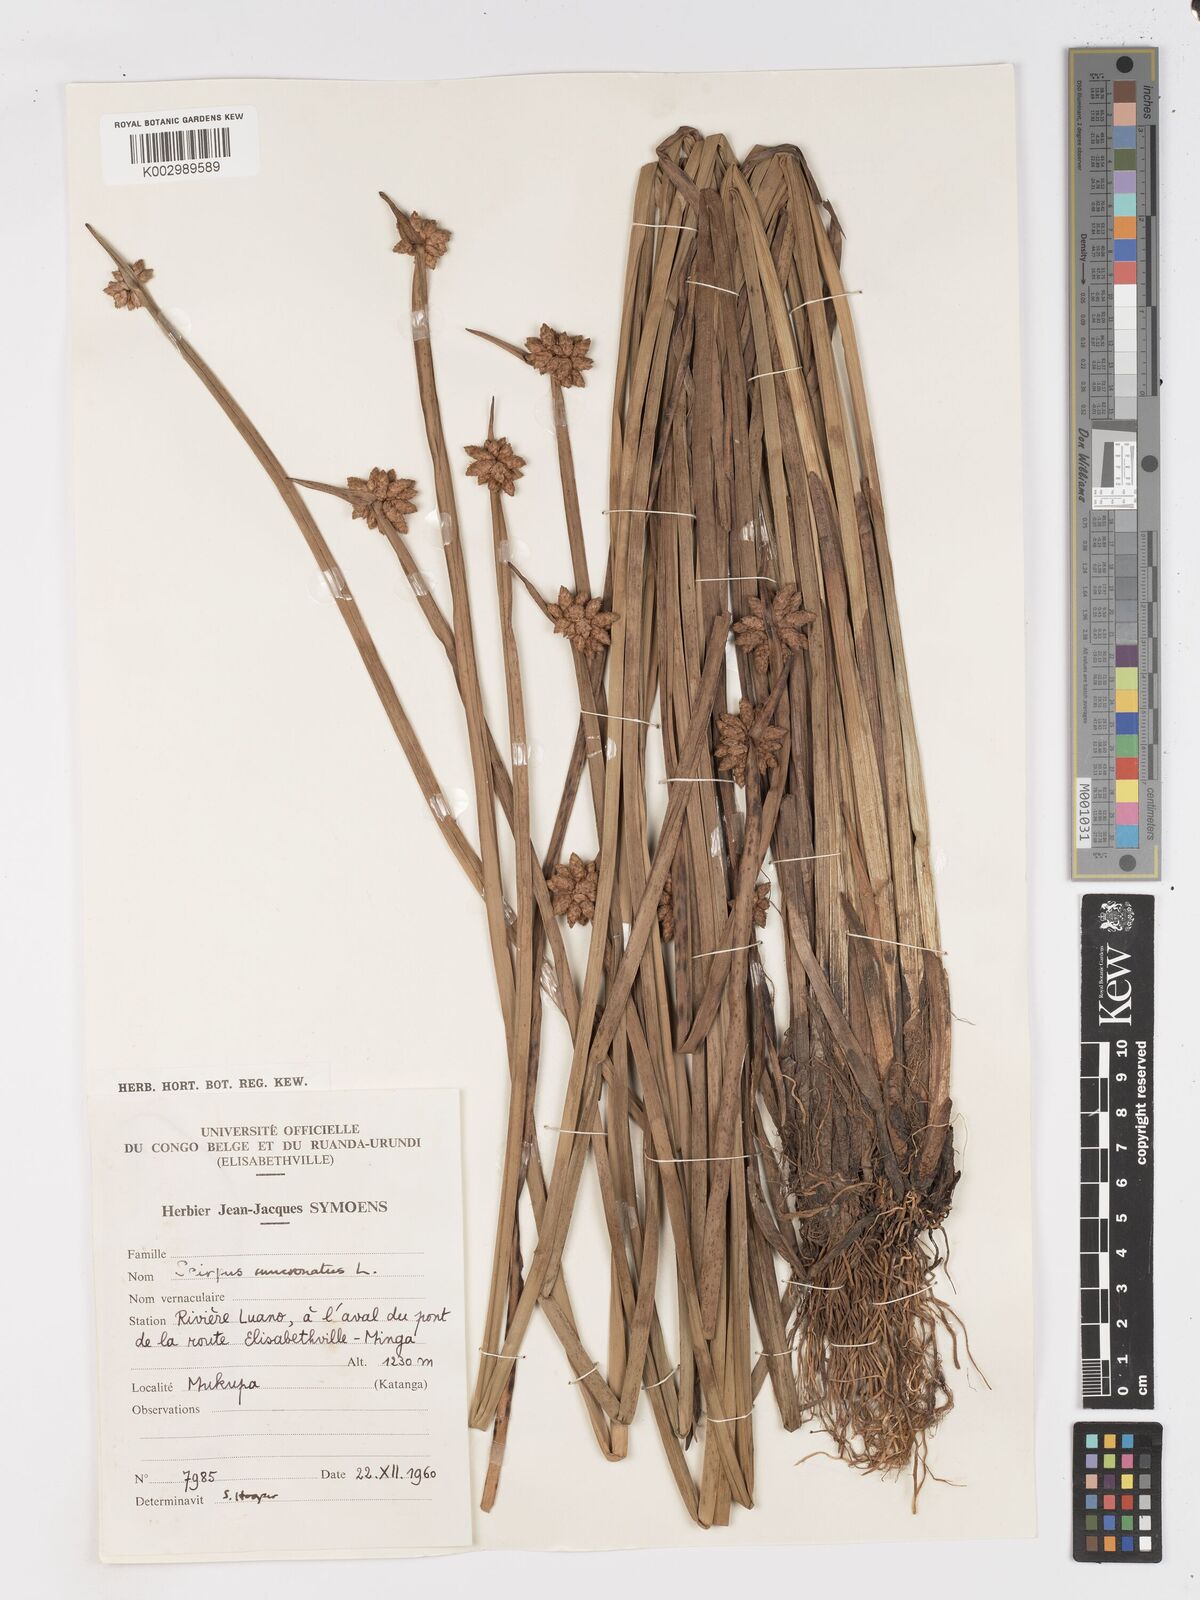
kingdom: Plantae
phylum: Tracheophyta
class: Liliopsida
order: Poales
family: Cyperaceae
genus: Schoenoplectiella
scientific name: Schoenoplectiella mucronata
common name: Bog bulrush
